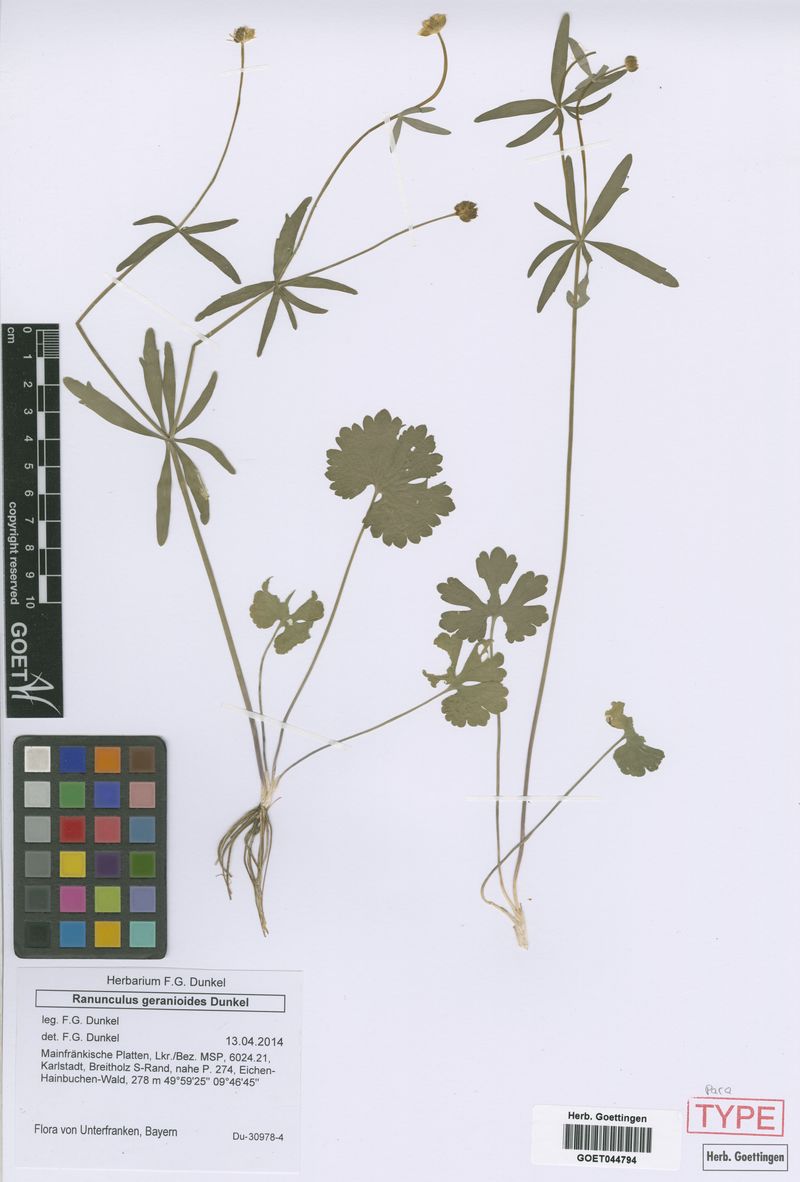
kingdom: Plantae
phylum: Tracheophyta
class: Magnoliopsida
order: Ranunculales
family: Ranunculaceae
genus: Ranunculus
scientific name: Ranunculus geraniiformis
